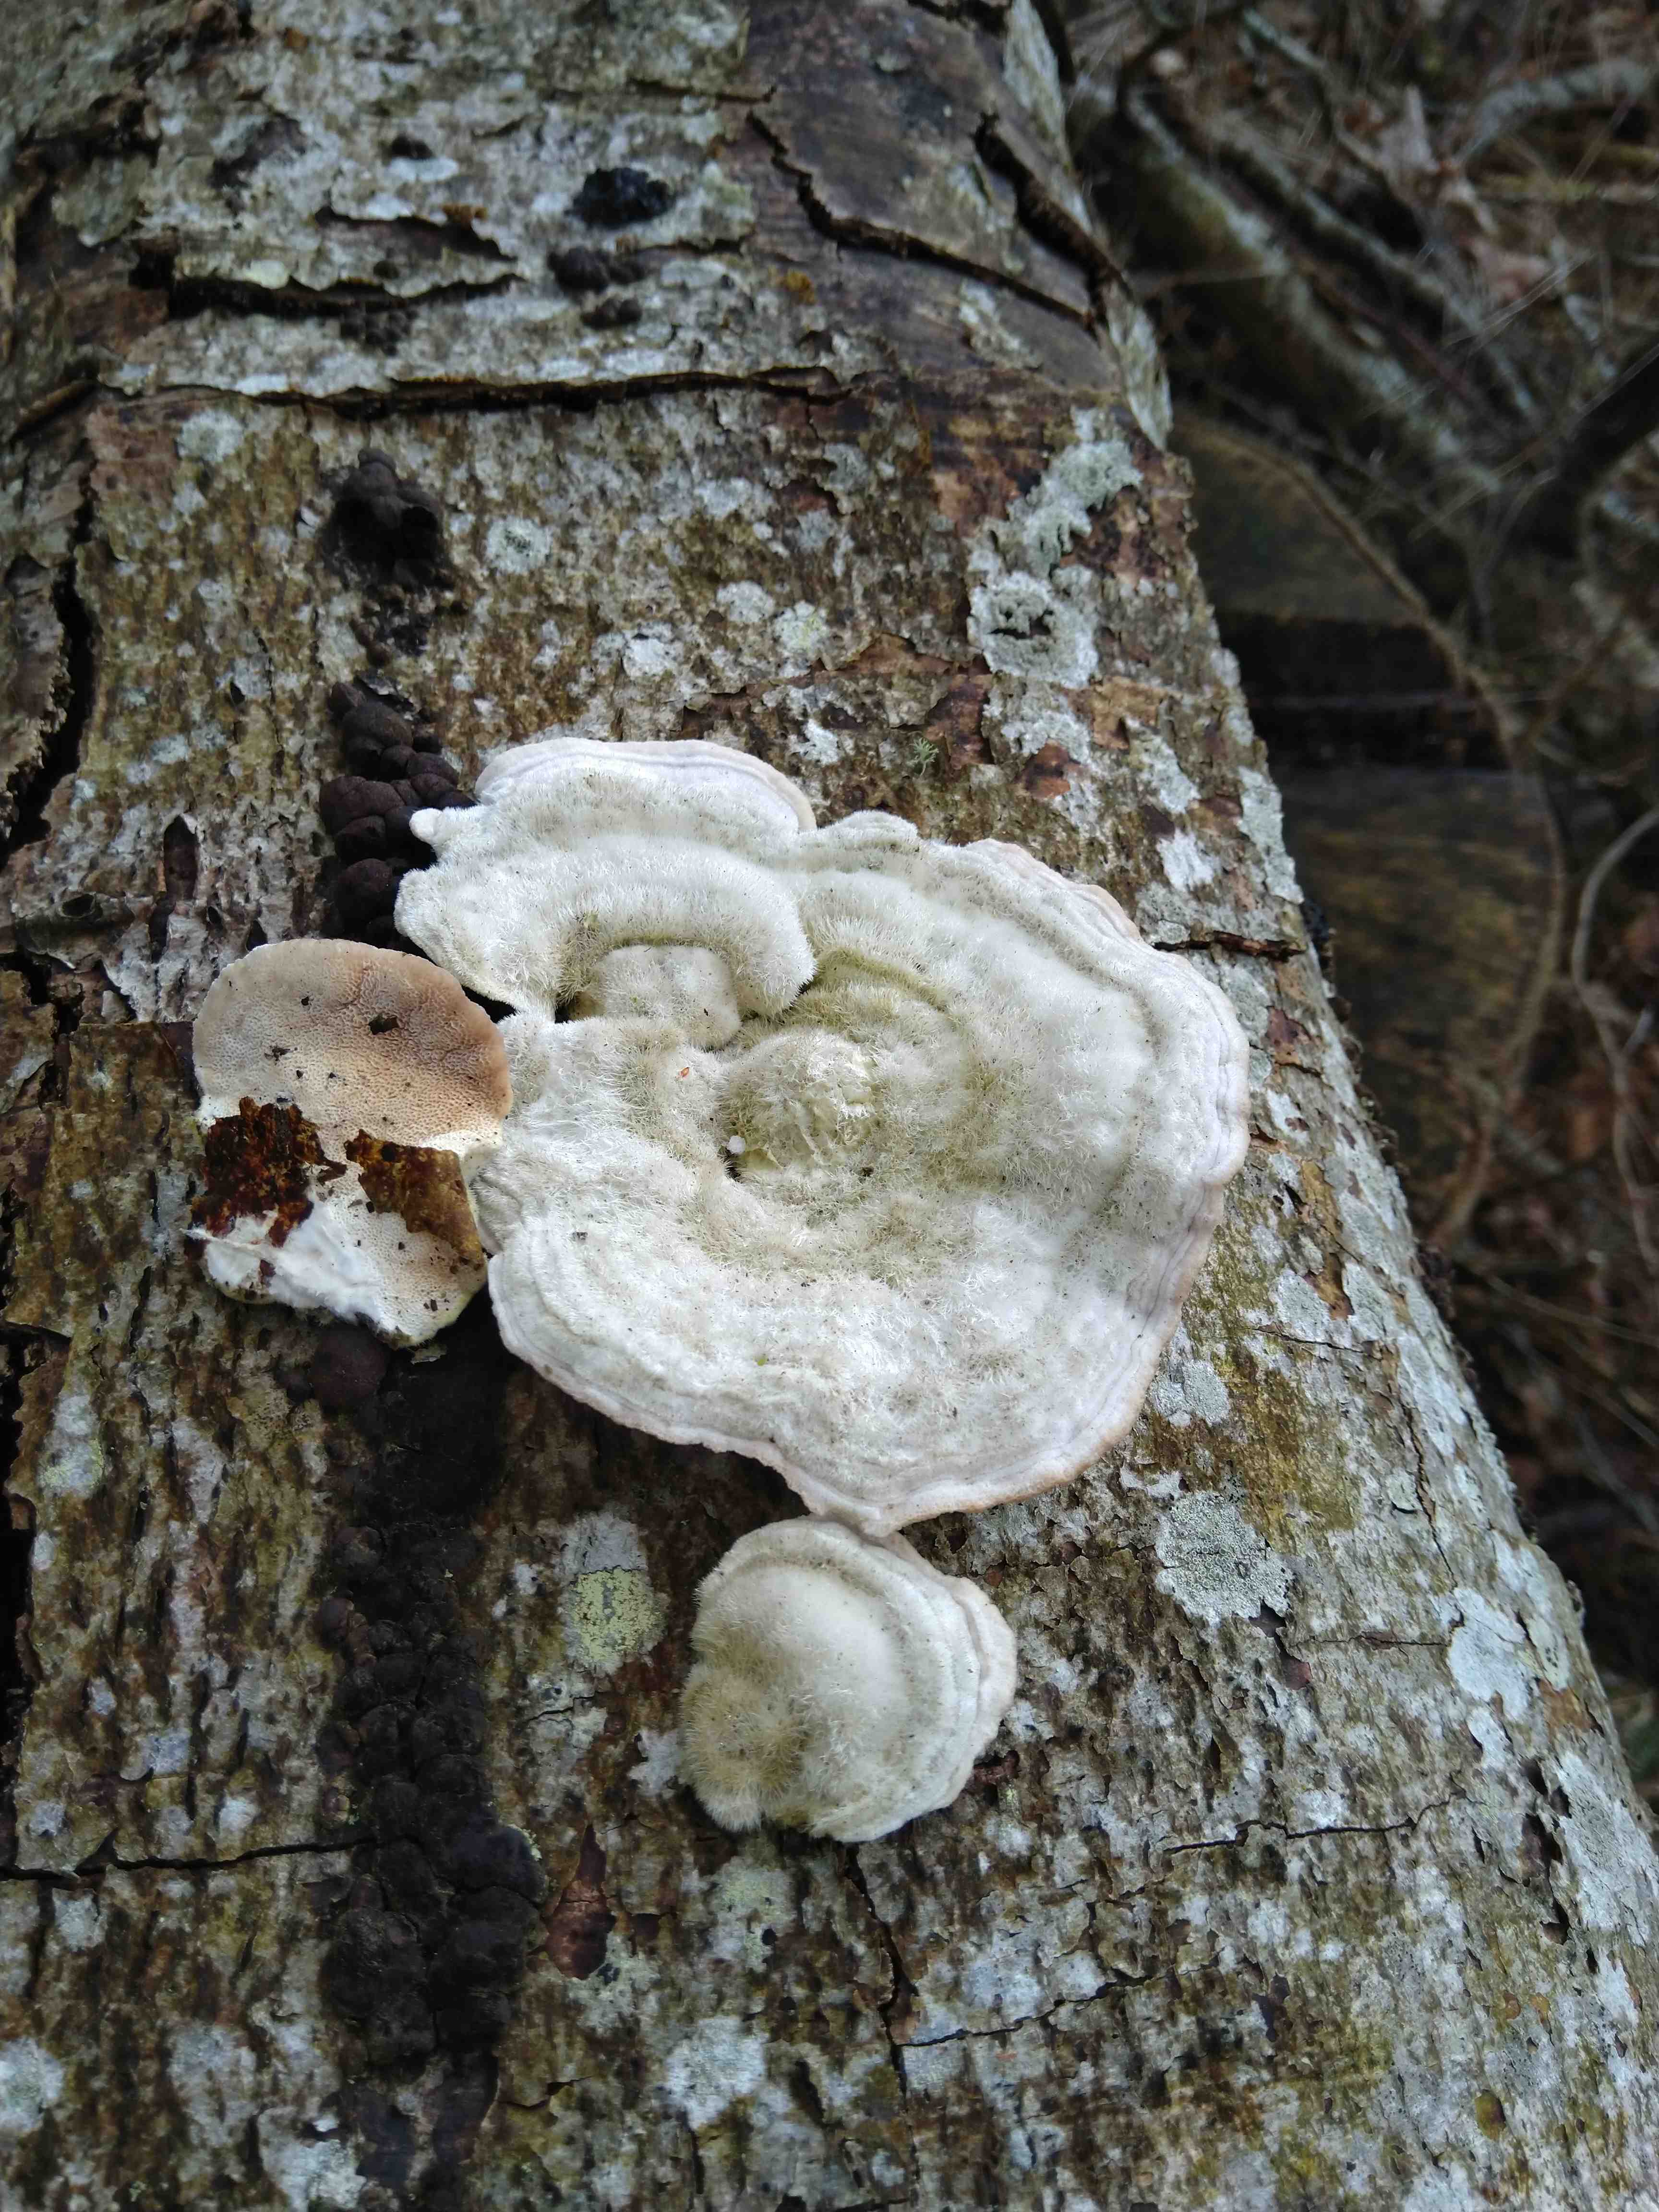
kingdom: Fungi
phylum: Basidiomycota
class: Agaricomycetes
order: Polyporales
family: Polyporaceae
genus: Trametes
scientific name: Trametes hirsuta
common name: håret læderporesvamp
